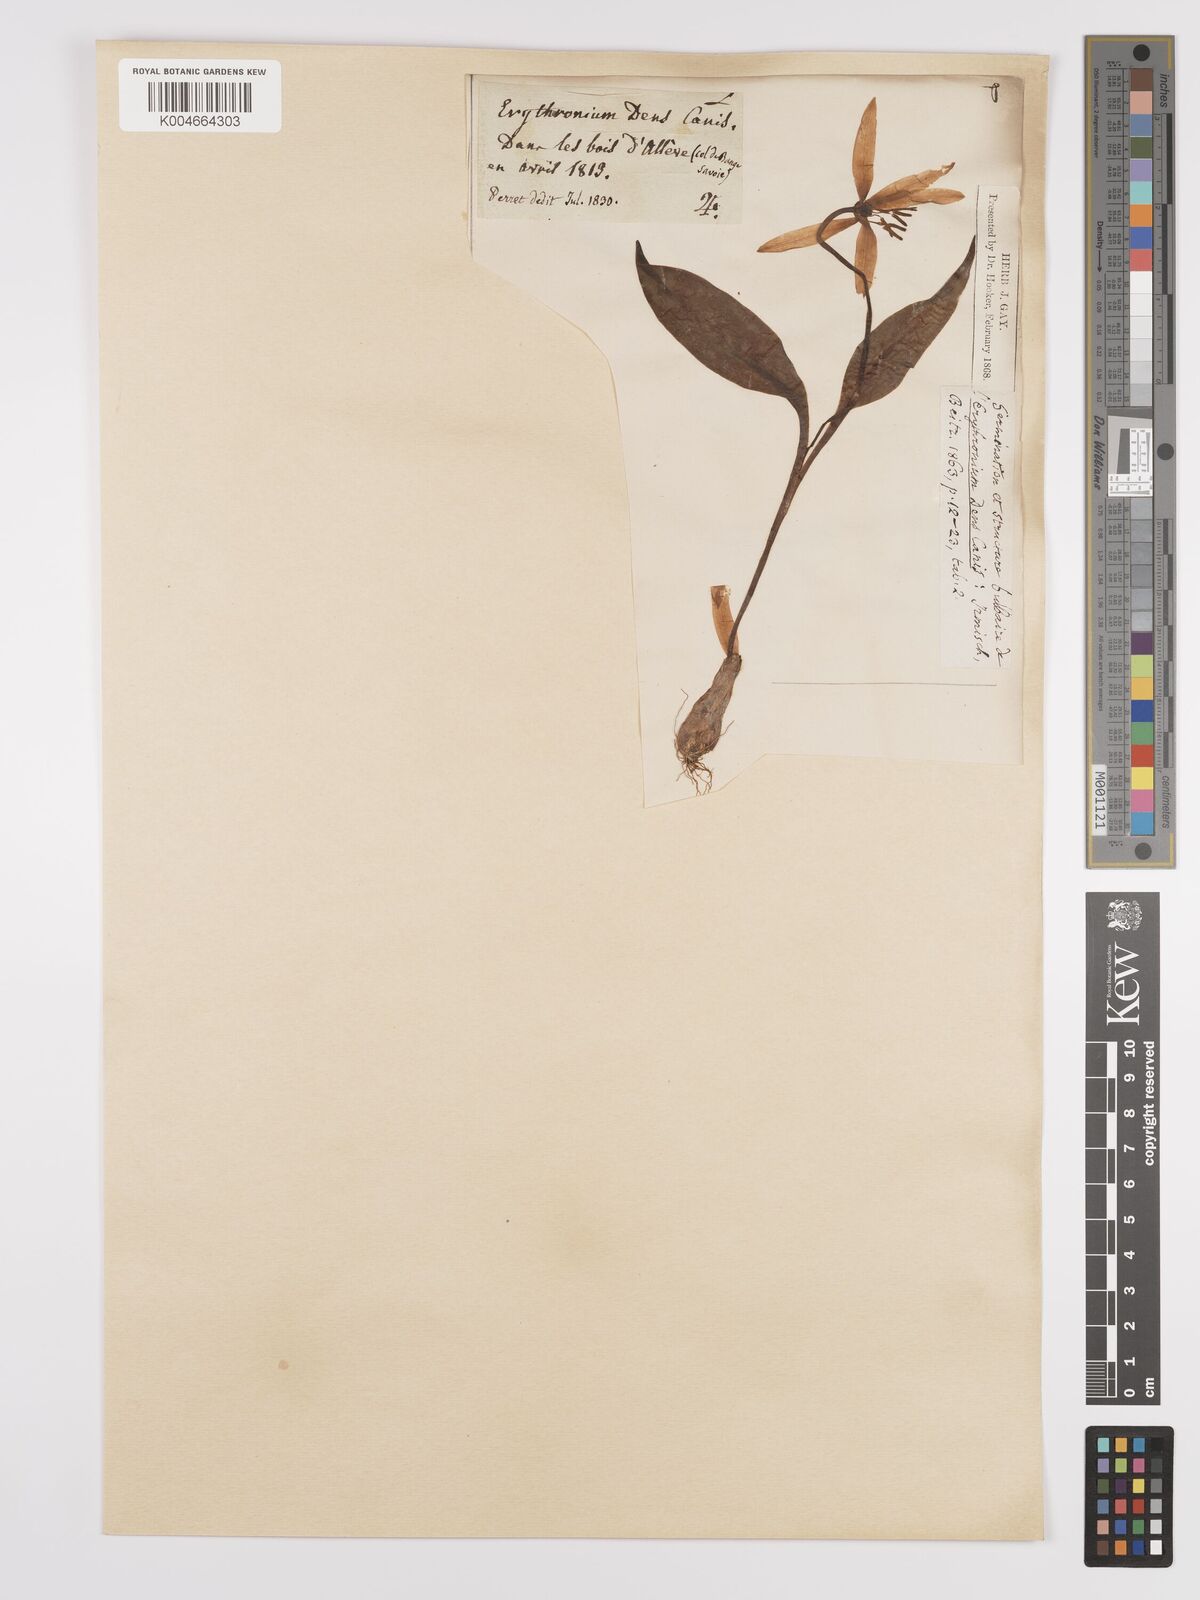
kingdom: Plantae
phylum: Tracheophyta
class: Liliopsida
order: Liliales
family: Liliaceae
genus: Erythronium
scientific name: Erythronium dens-canis
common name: Dog's-tooth-violet
